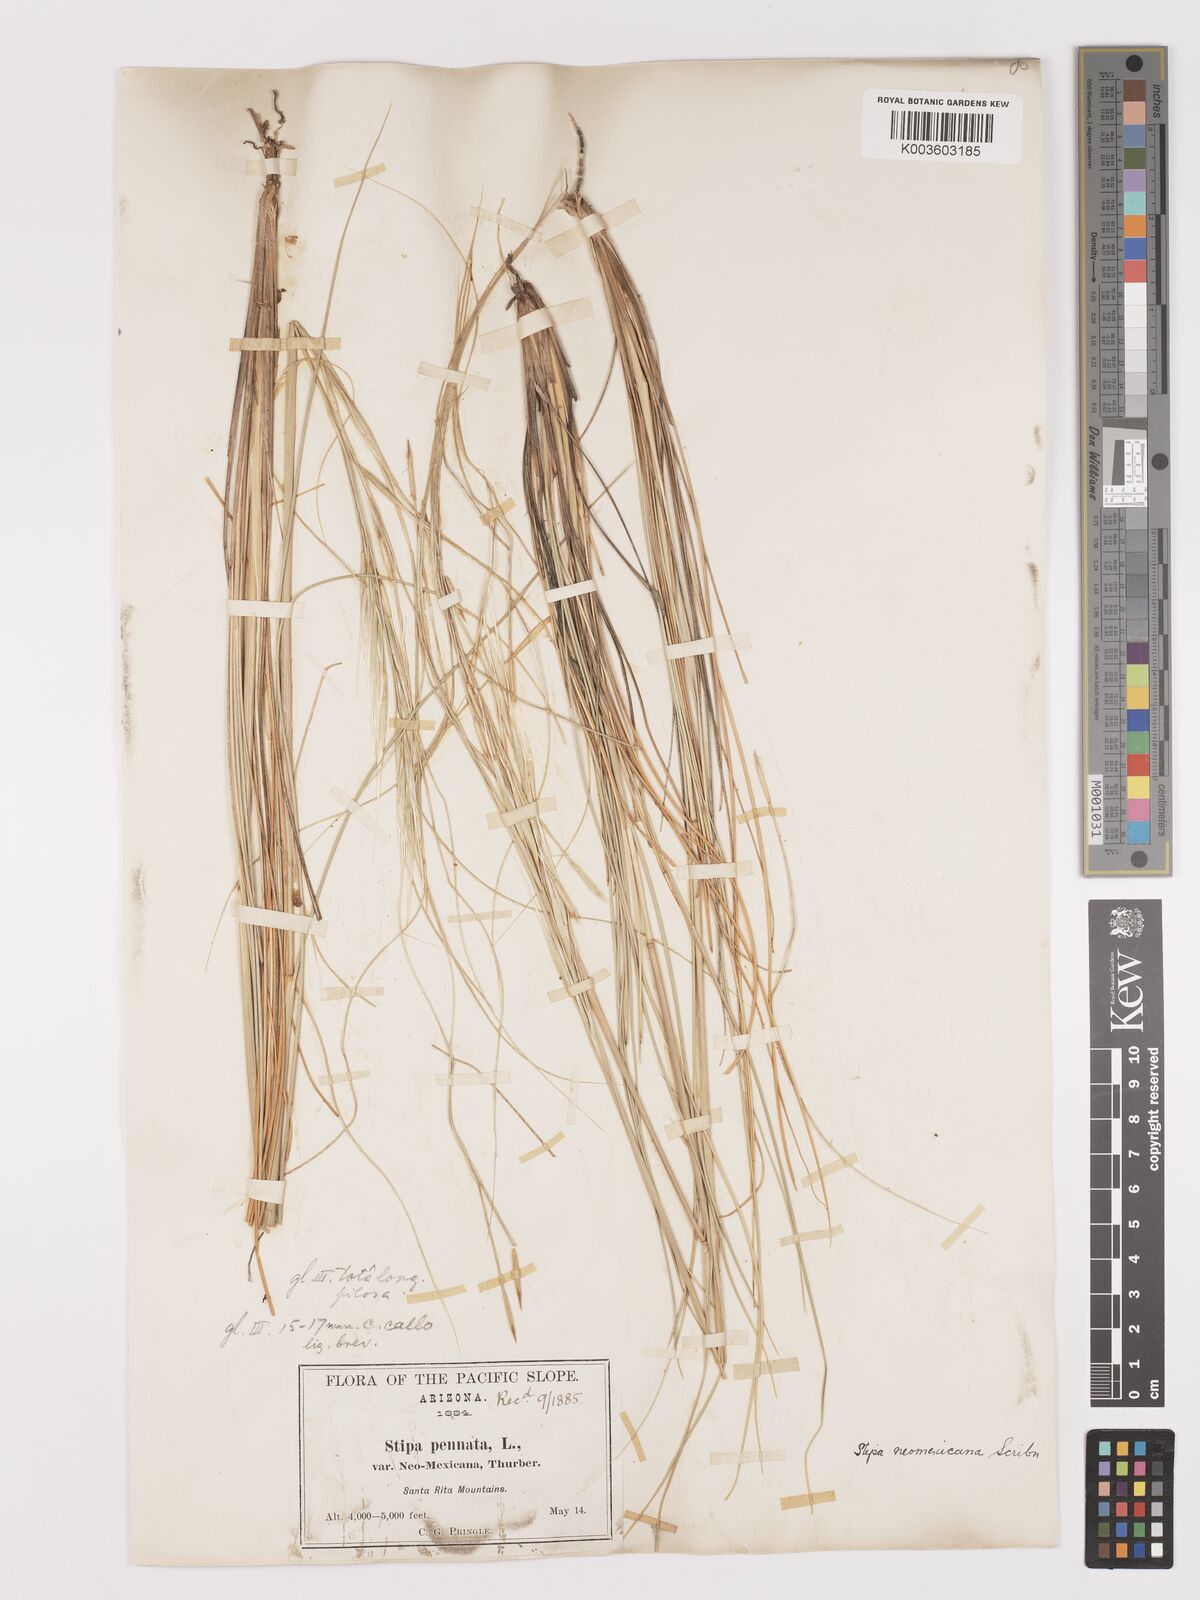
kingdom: Plantae
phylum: Tracheophyta
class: Liliopsida
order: Poales
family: Poaceae
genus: Hesperostipa
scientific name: Hesperostipa neomexicana
